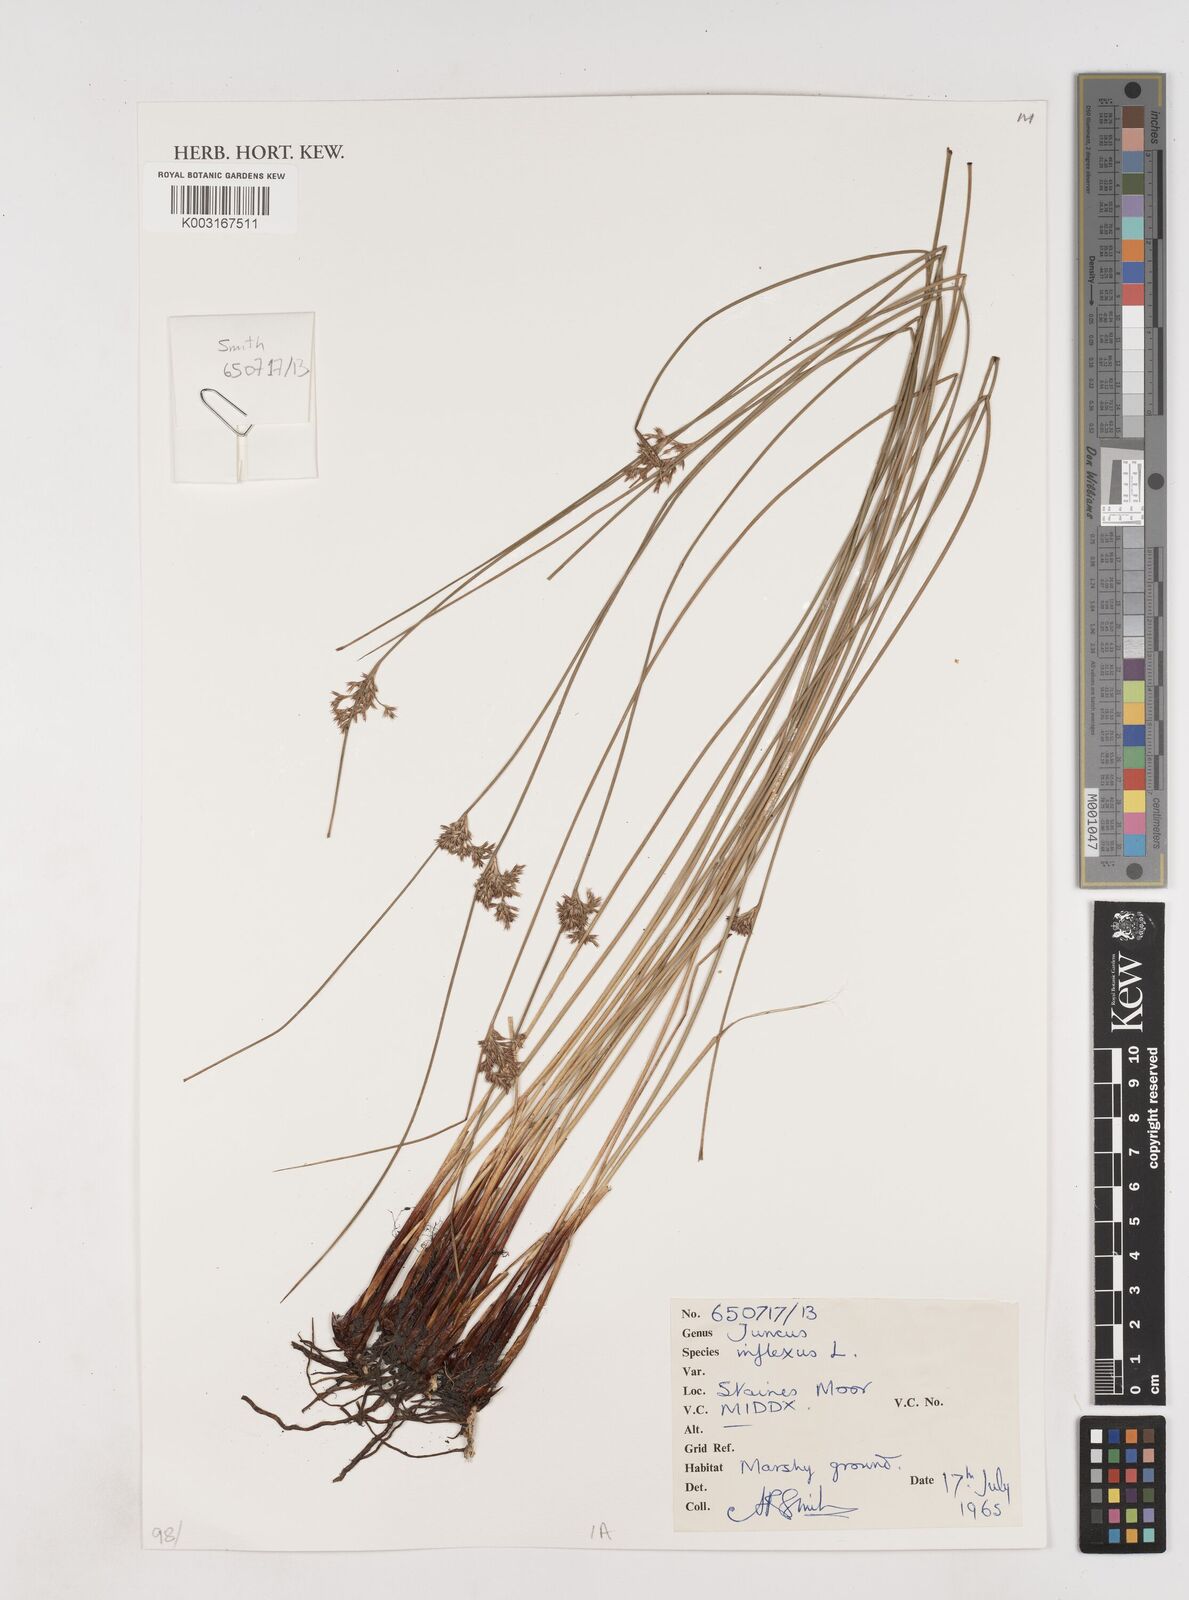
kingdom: Plantae
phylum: Tracheophyta
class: Liliopsida
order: Poales
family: Juncaceae
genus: Juncus
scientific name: Juncus inflexus
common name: Hard rush
